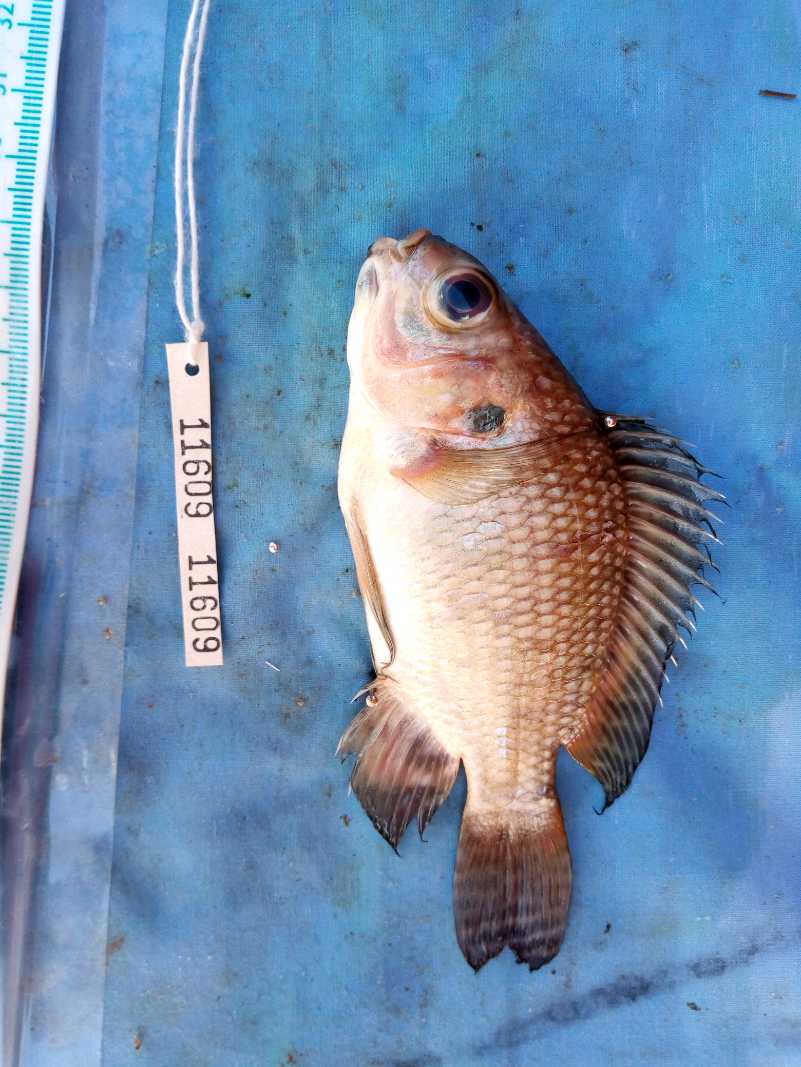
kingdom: Animalia
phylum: Chordata
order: Perciformes
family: Cichlidae
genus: Oreochromis
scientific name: Oreochromis niloticus
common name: Nile tilapia
